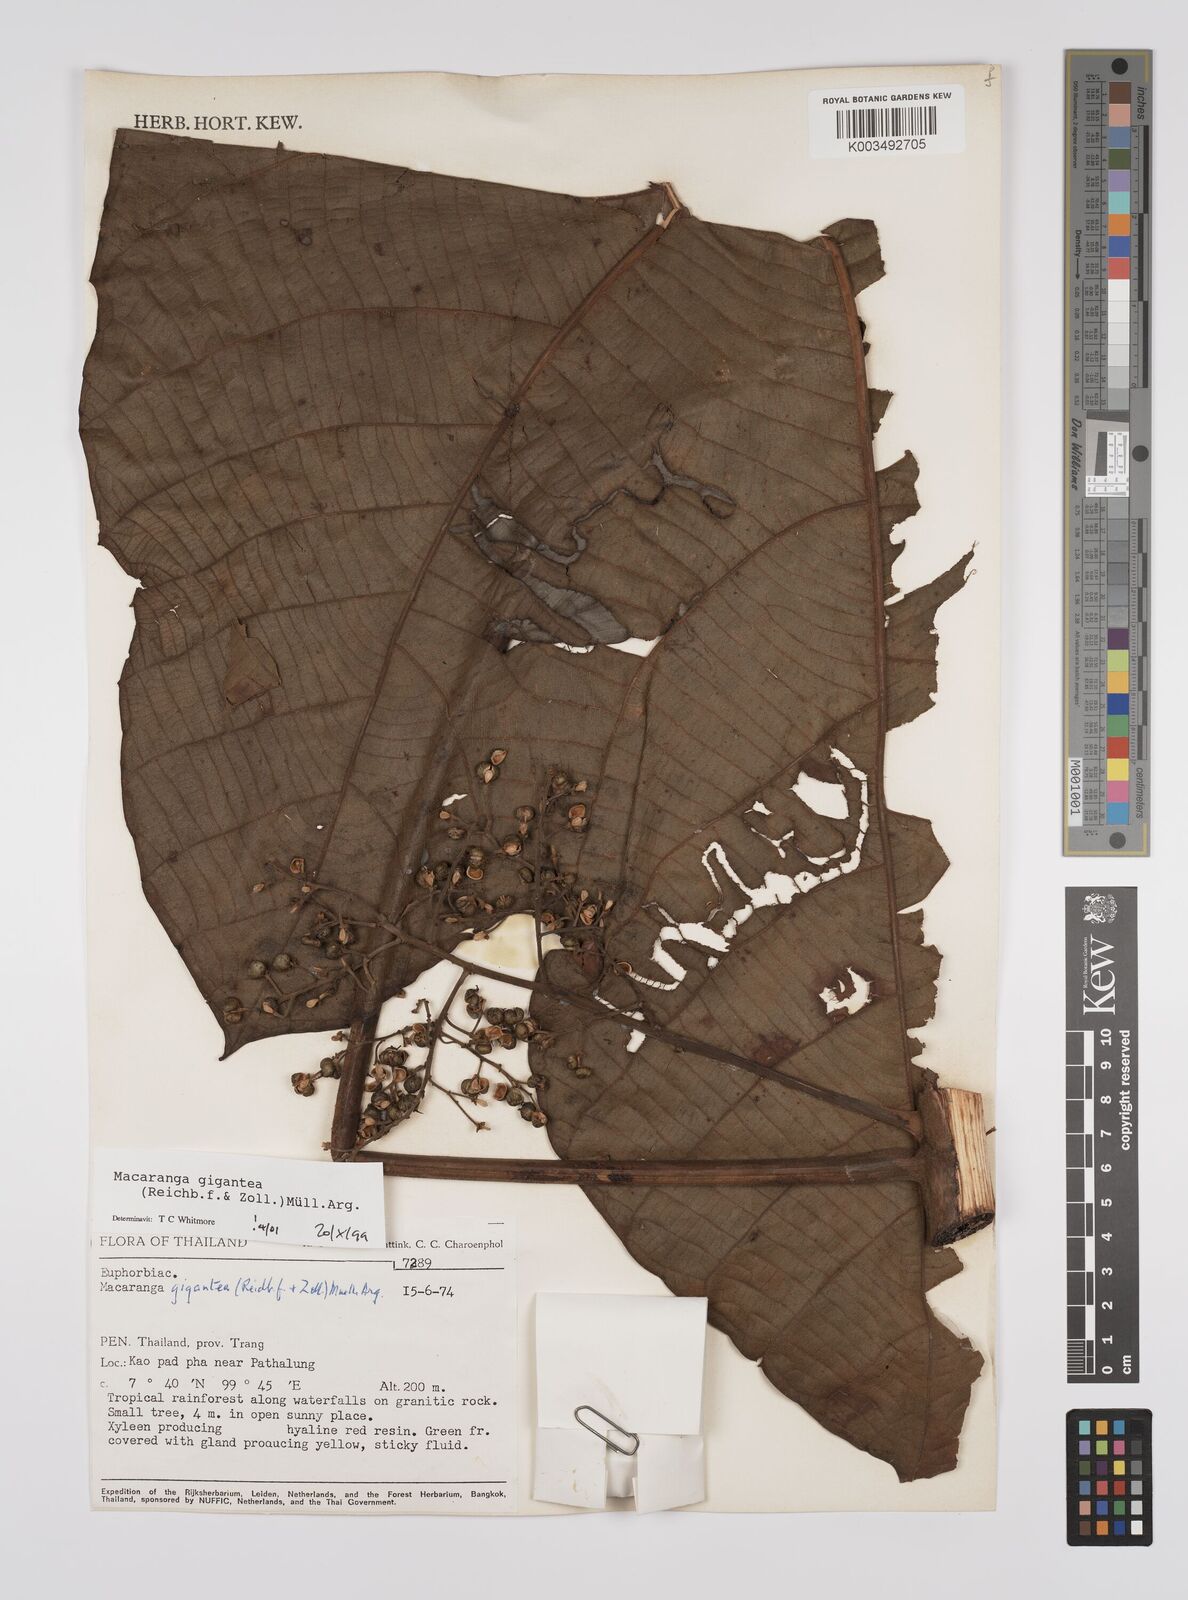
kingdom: Plantae
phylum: Tracheophyta
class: Magnoliopsida
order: Malpighiales
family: Euphorbiaceae
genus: Macaranga
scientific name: Macaranga gigantea
